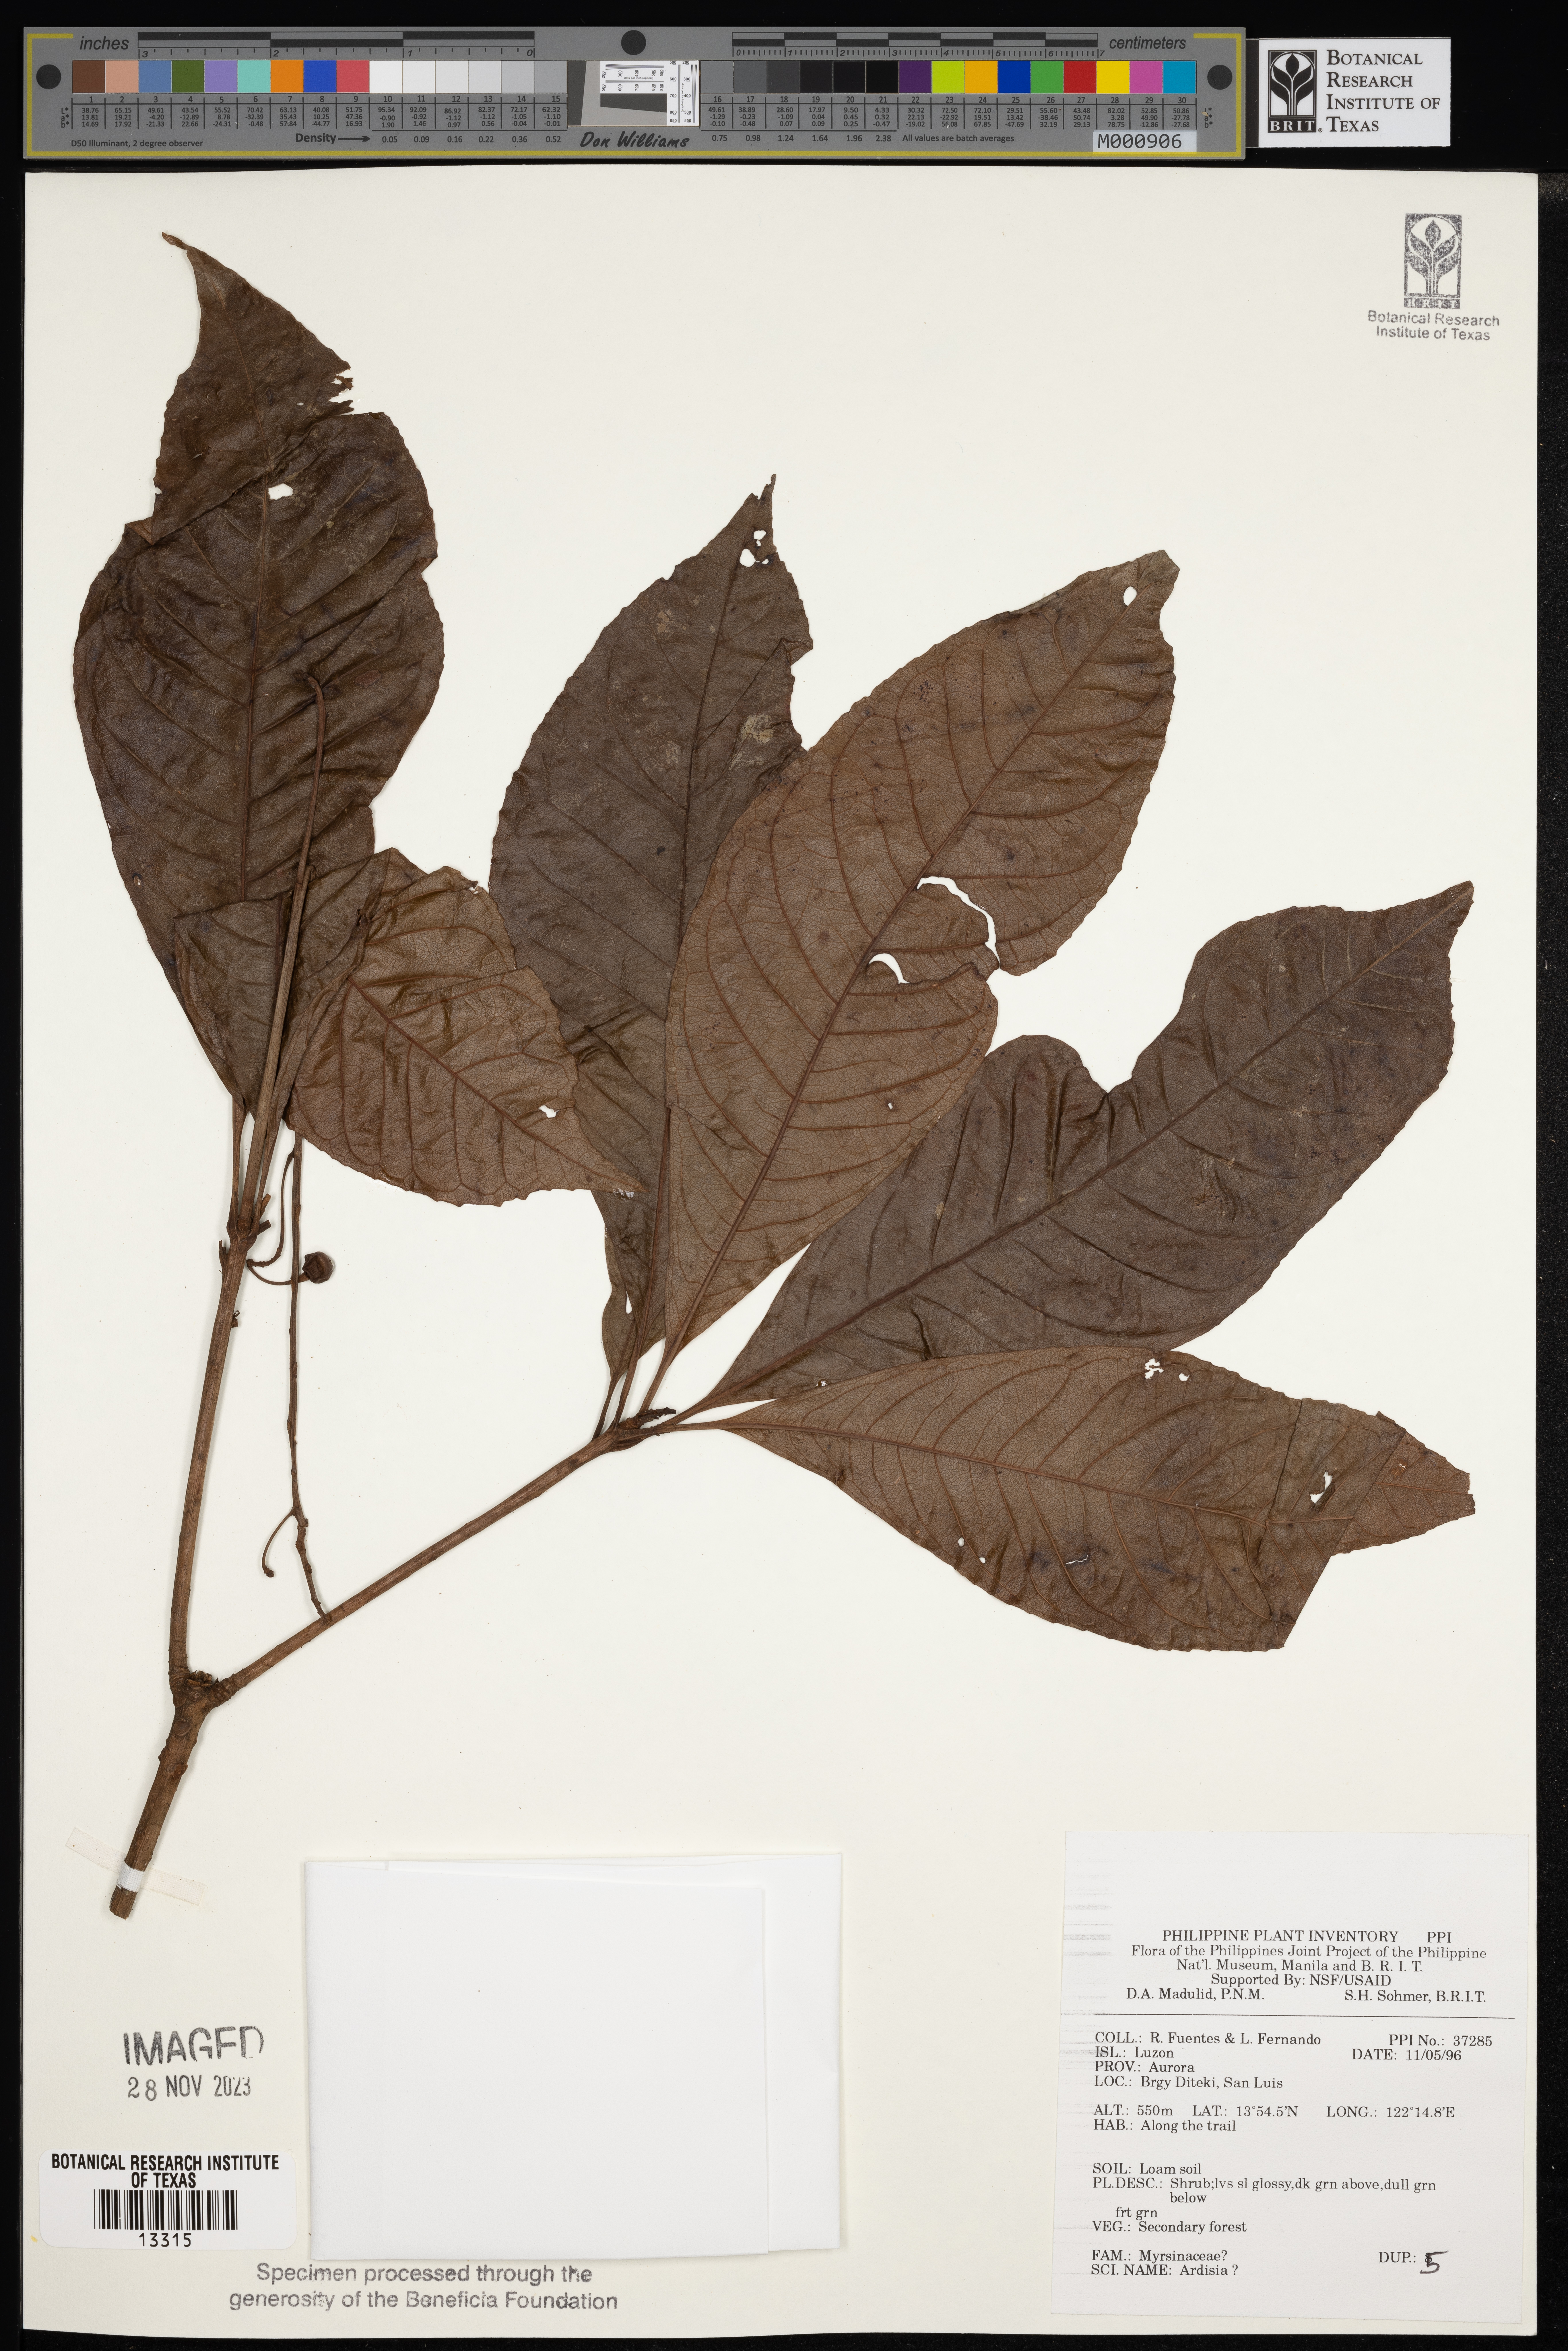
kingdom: Plantae
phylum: Tracheophyta
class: Magnoliopsida
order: Ericales
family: Primulaceae
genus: Ardisia
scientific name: Ardisia
